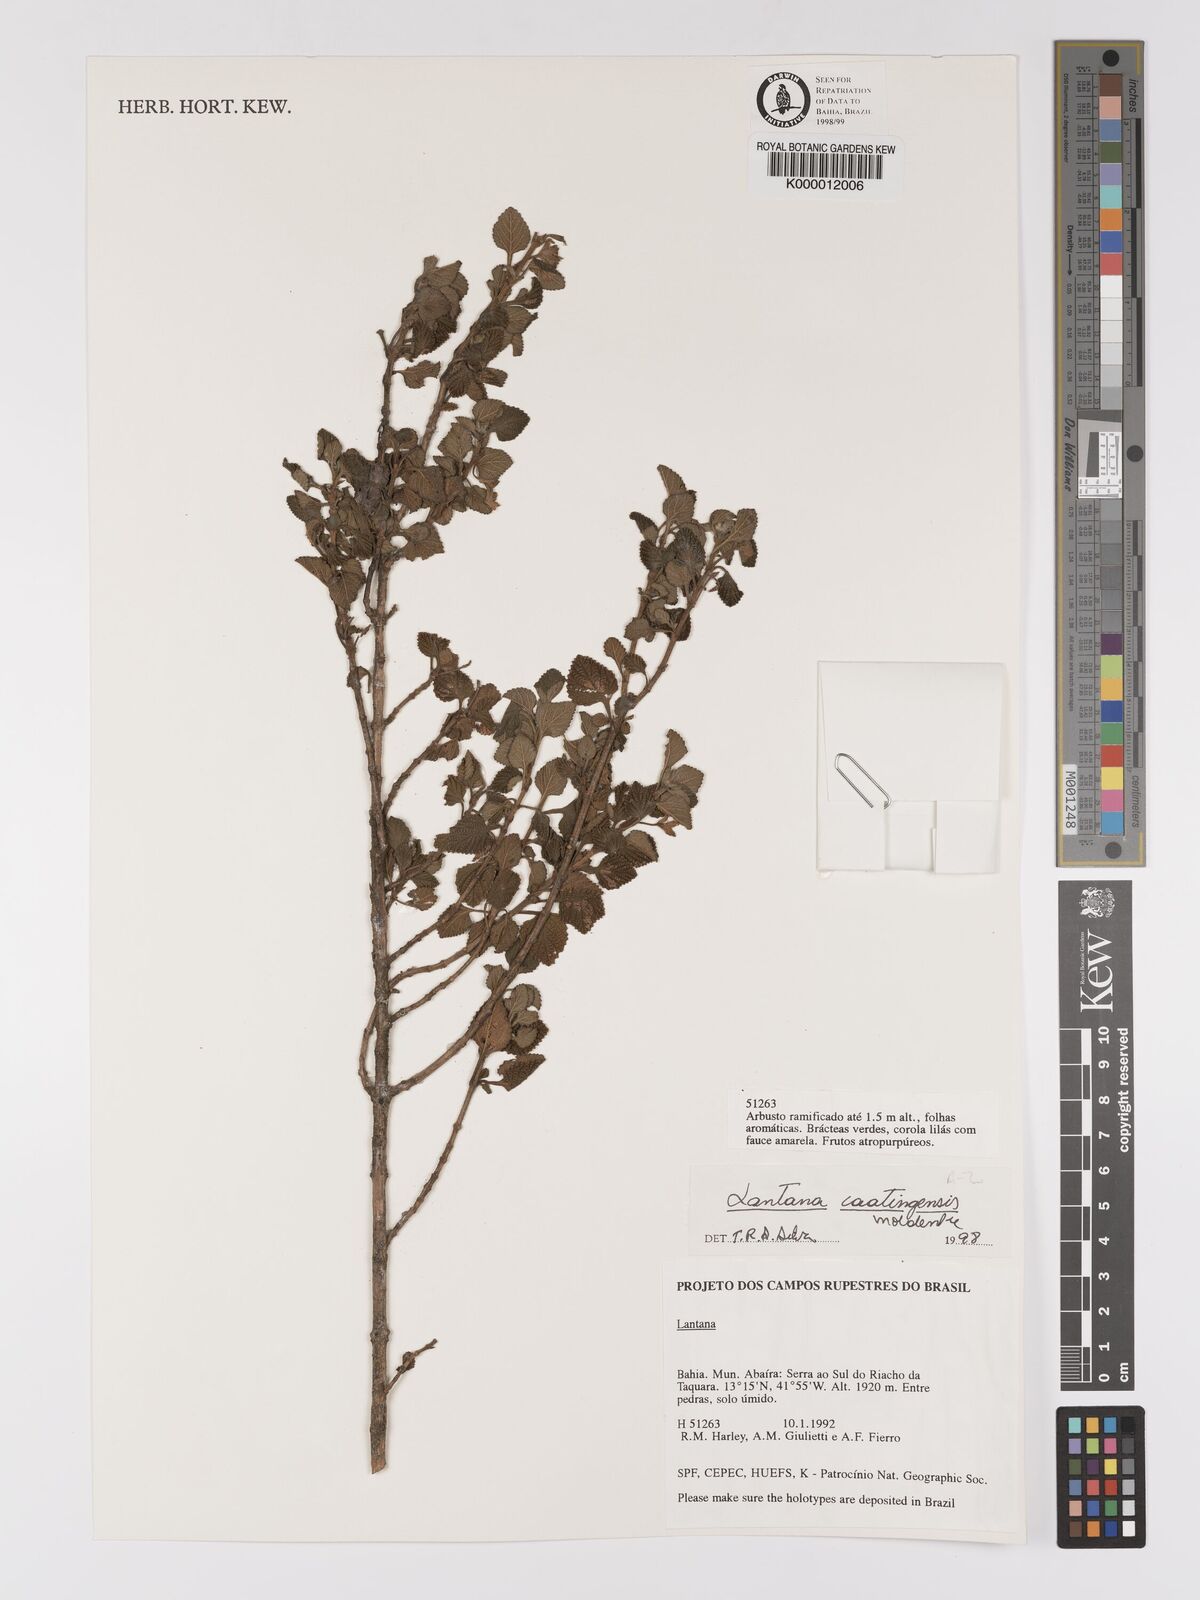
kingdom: Plantae
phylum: Tracheophyta
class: Magnoliopsida
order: Lamiales
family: Verbenaceae
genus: Lantana
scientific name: Lantana caatingensis
